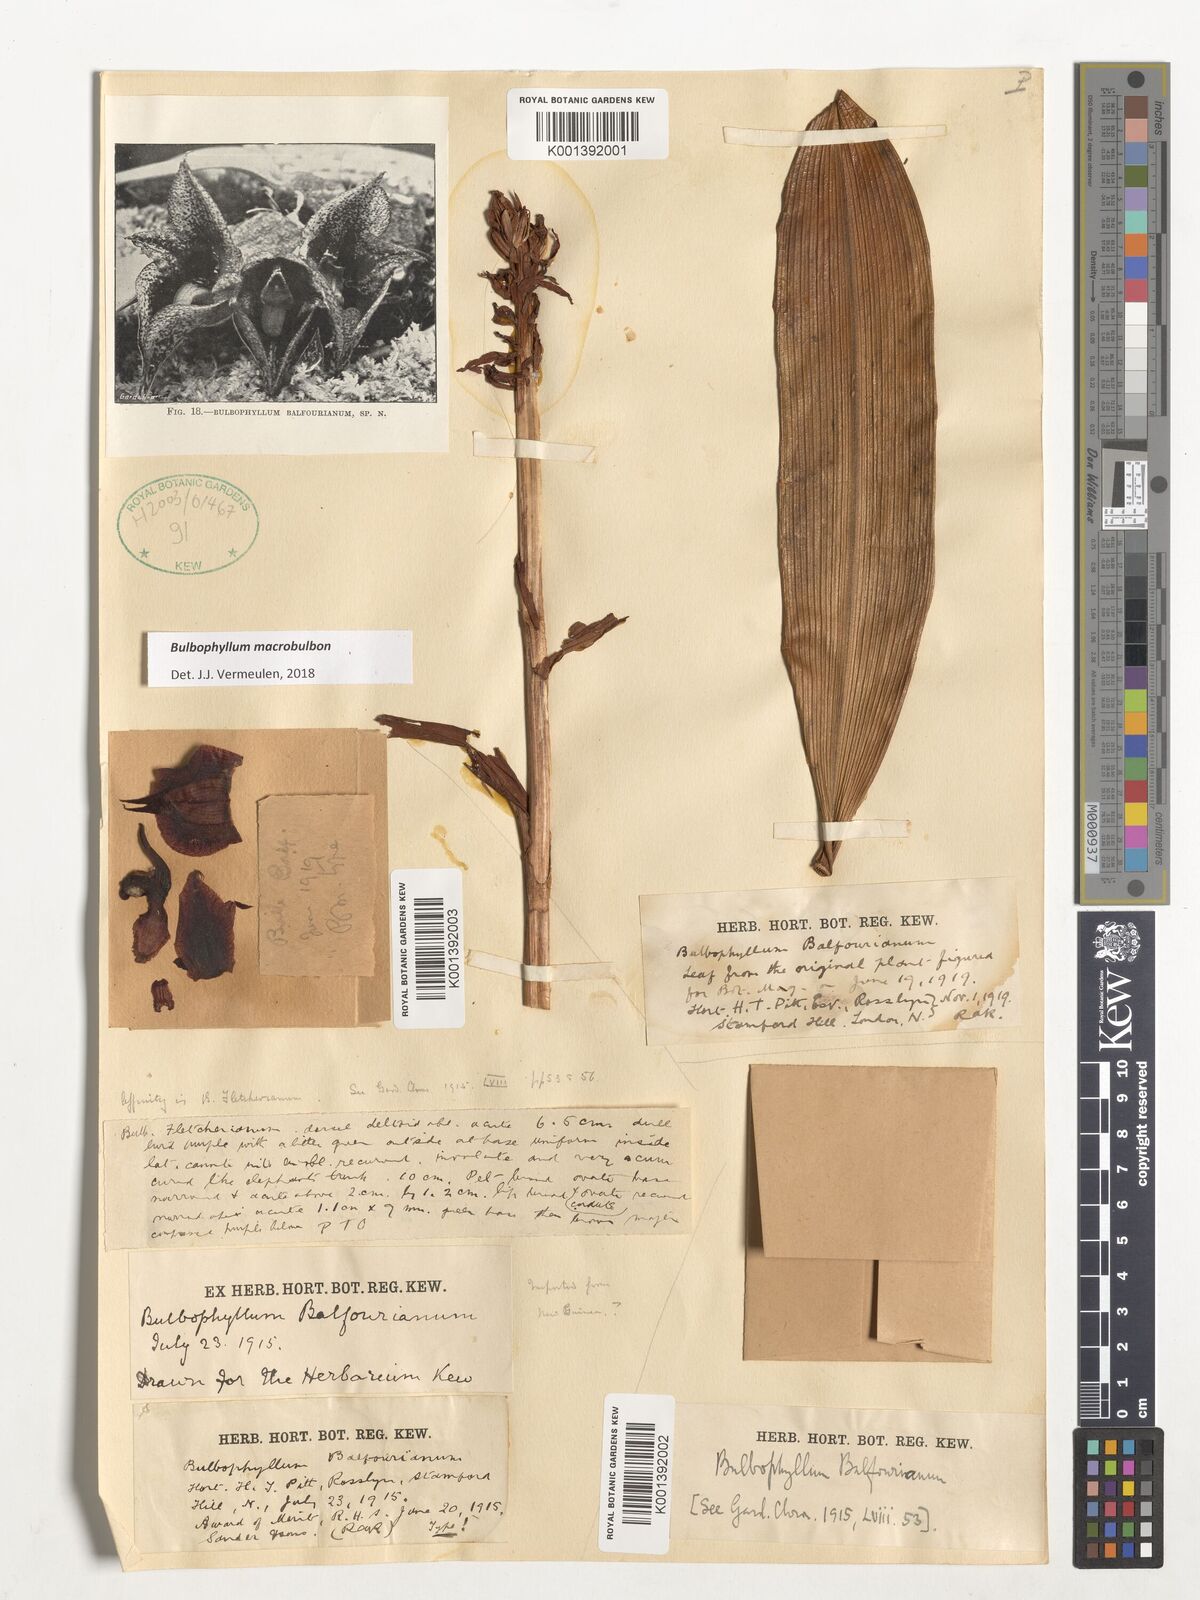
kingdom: Plantae
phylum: Tracheophyta
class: Liliopsida
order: Asparagales
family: Orchidaceae
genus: Bulbophyllum
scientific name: Bulbophyllum macrobulbon
